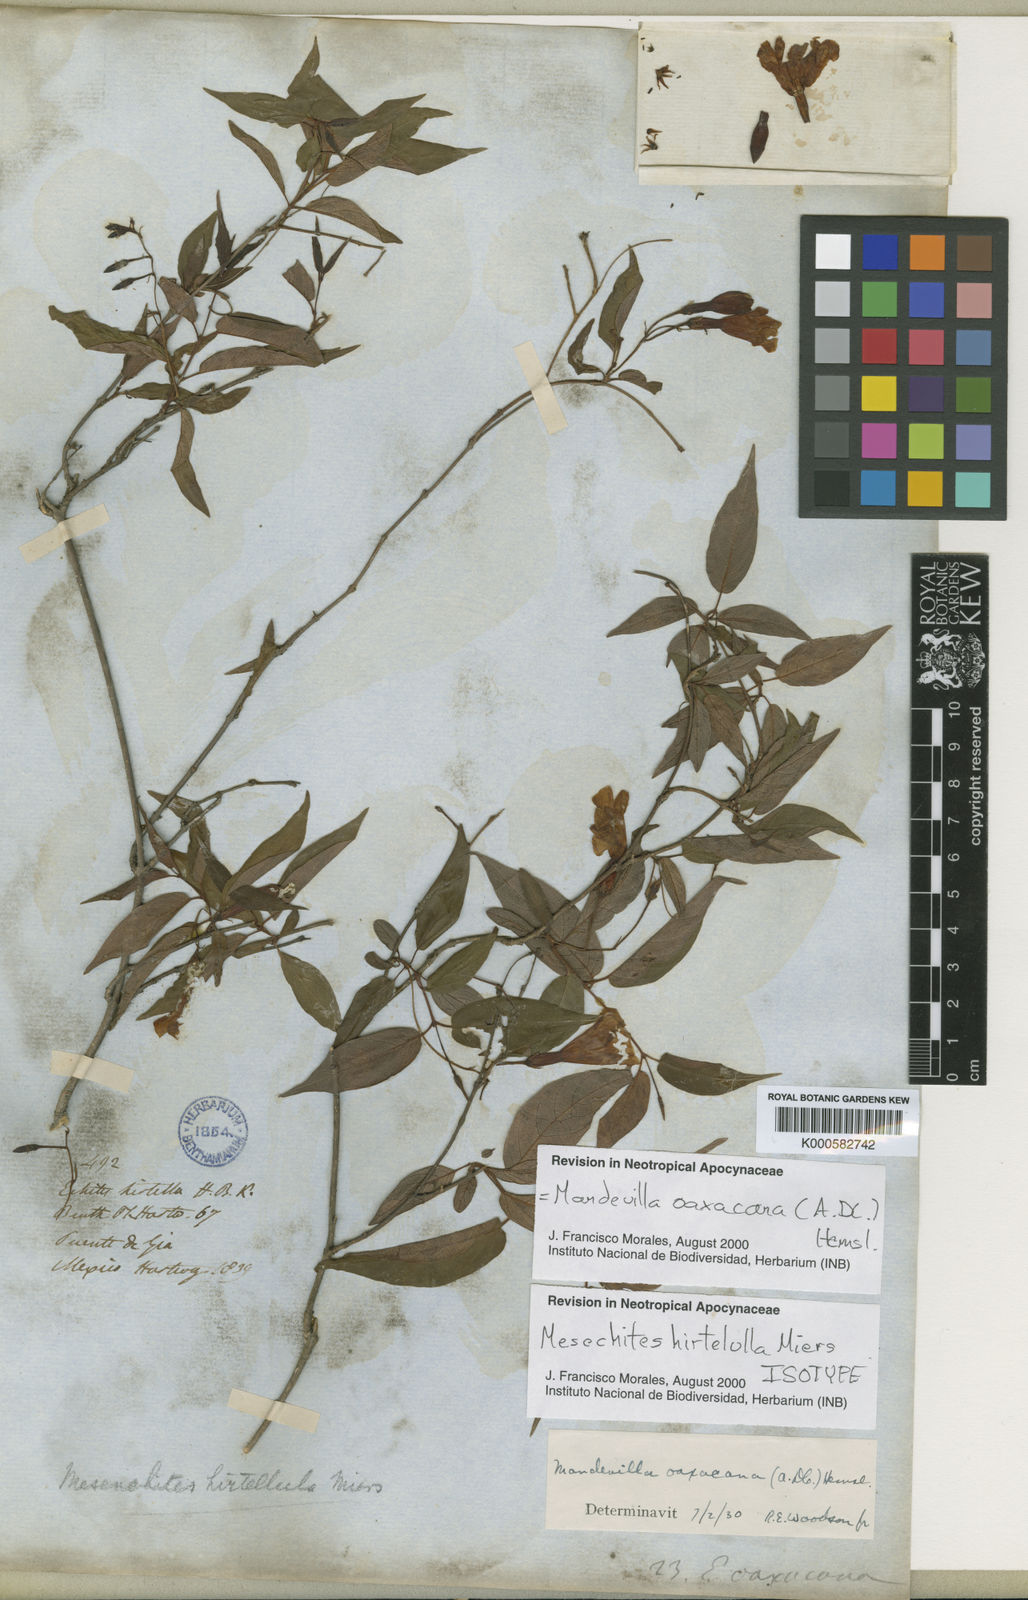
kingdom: Plantae
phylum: Tracheophyta
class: Magnoliopsida
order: Gentianales
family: Apocynaceae
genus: Mandevilla
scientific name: Mandevilla oaxacana
